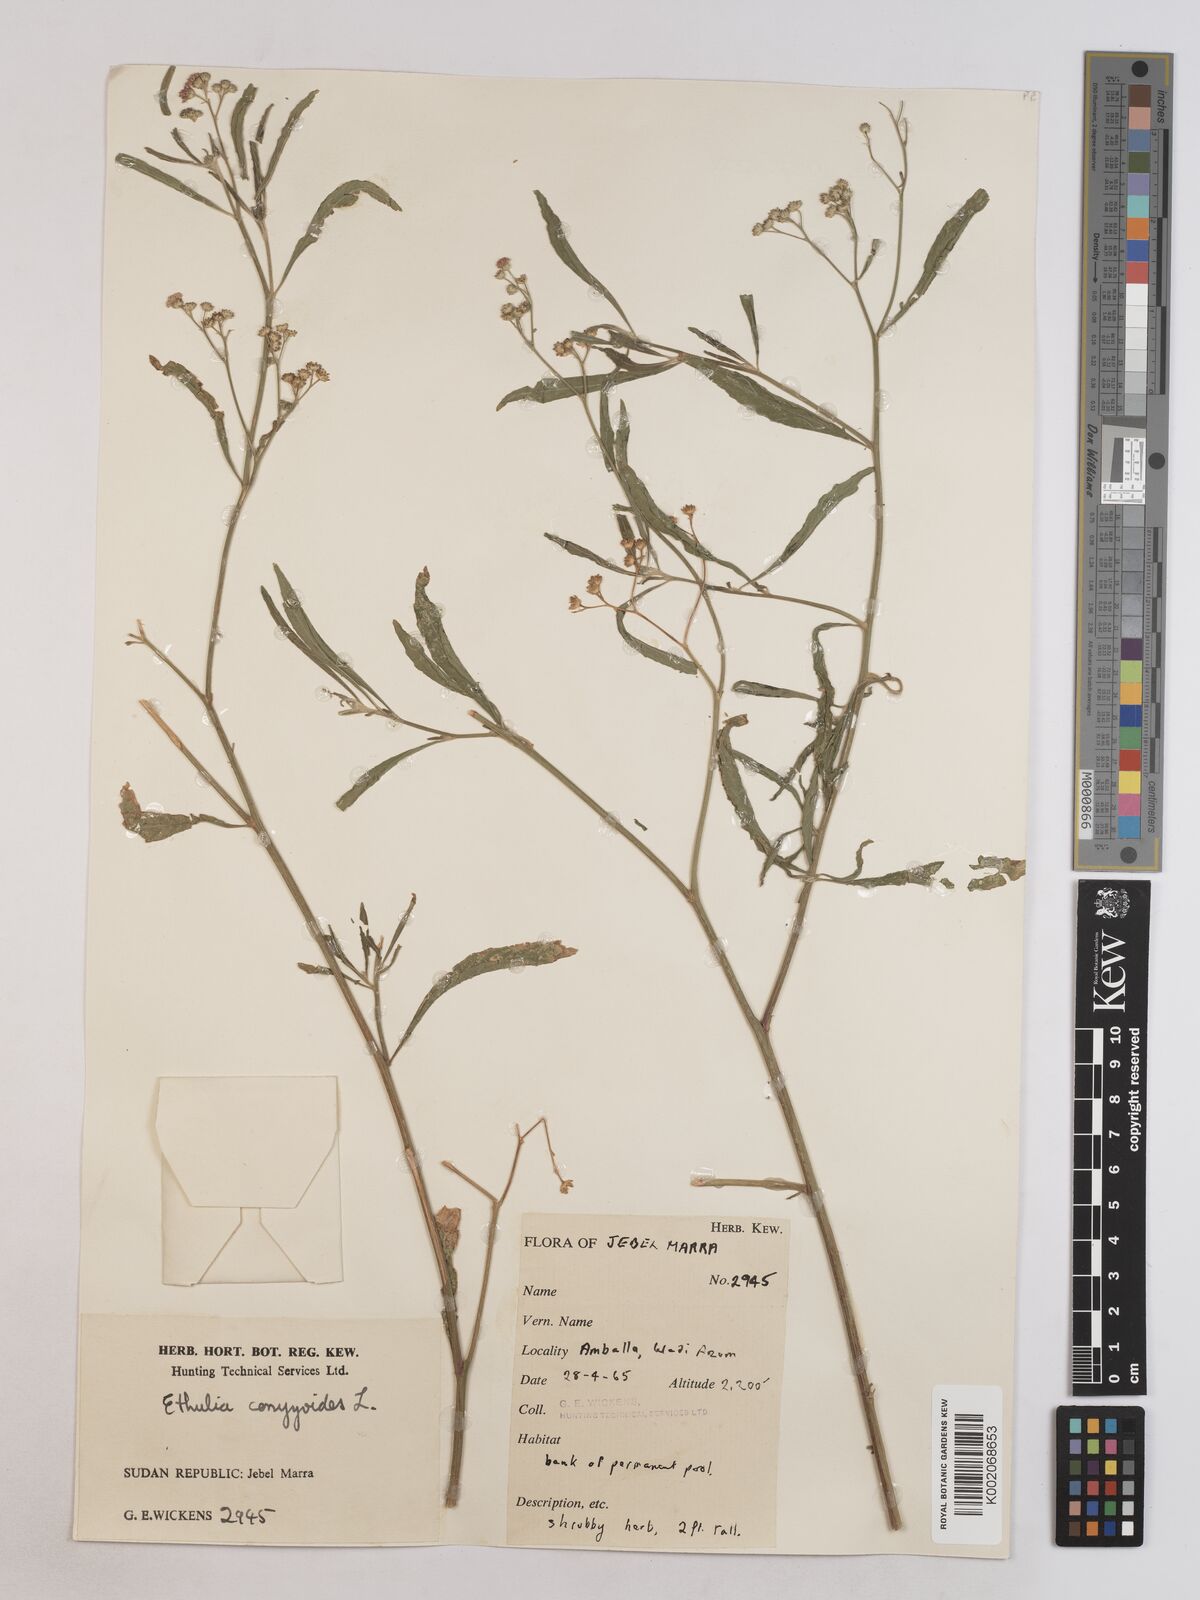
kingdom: Plantae
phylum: Tracheophyta
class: Magnoliopsida
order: Asterales
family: Asteraceae
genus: Ethulia
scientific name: Ethulia gracilis
